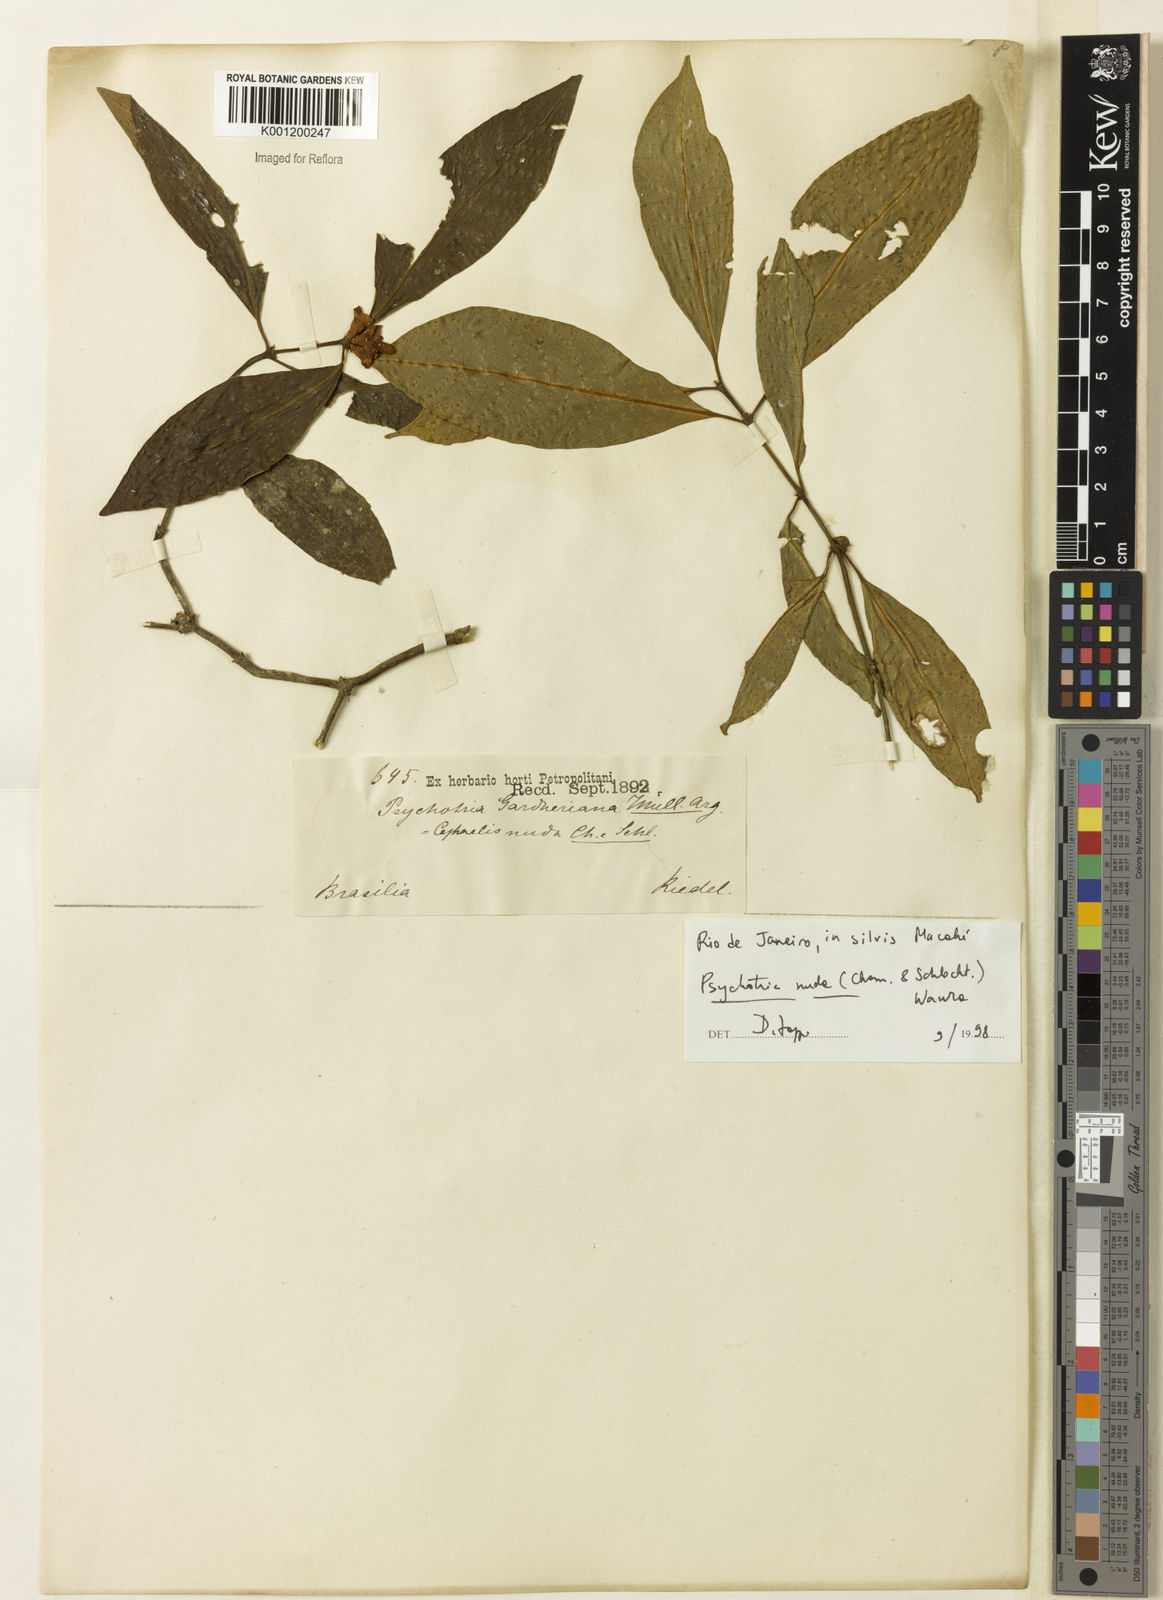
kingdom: Plantae
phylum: Tracheophyta
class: Magnoliopsida
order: Gentianales
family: Rubiaceae
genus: Psychotria
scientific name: Psychotria
